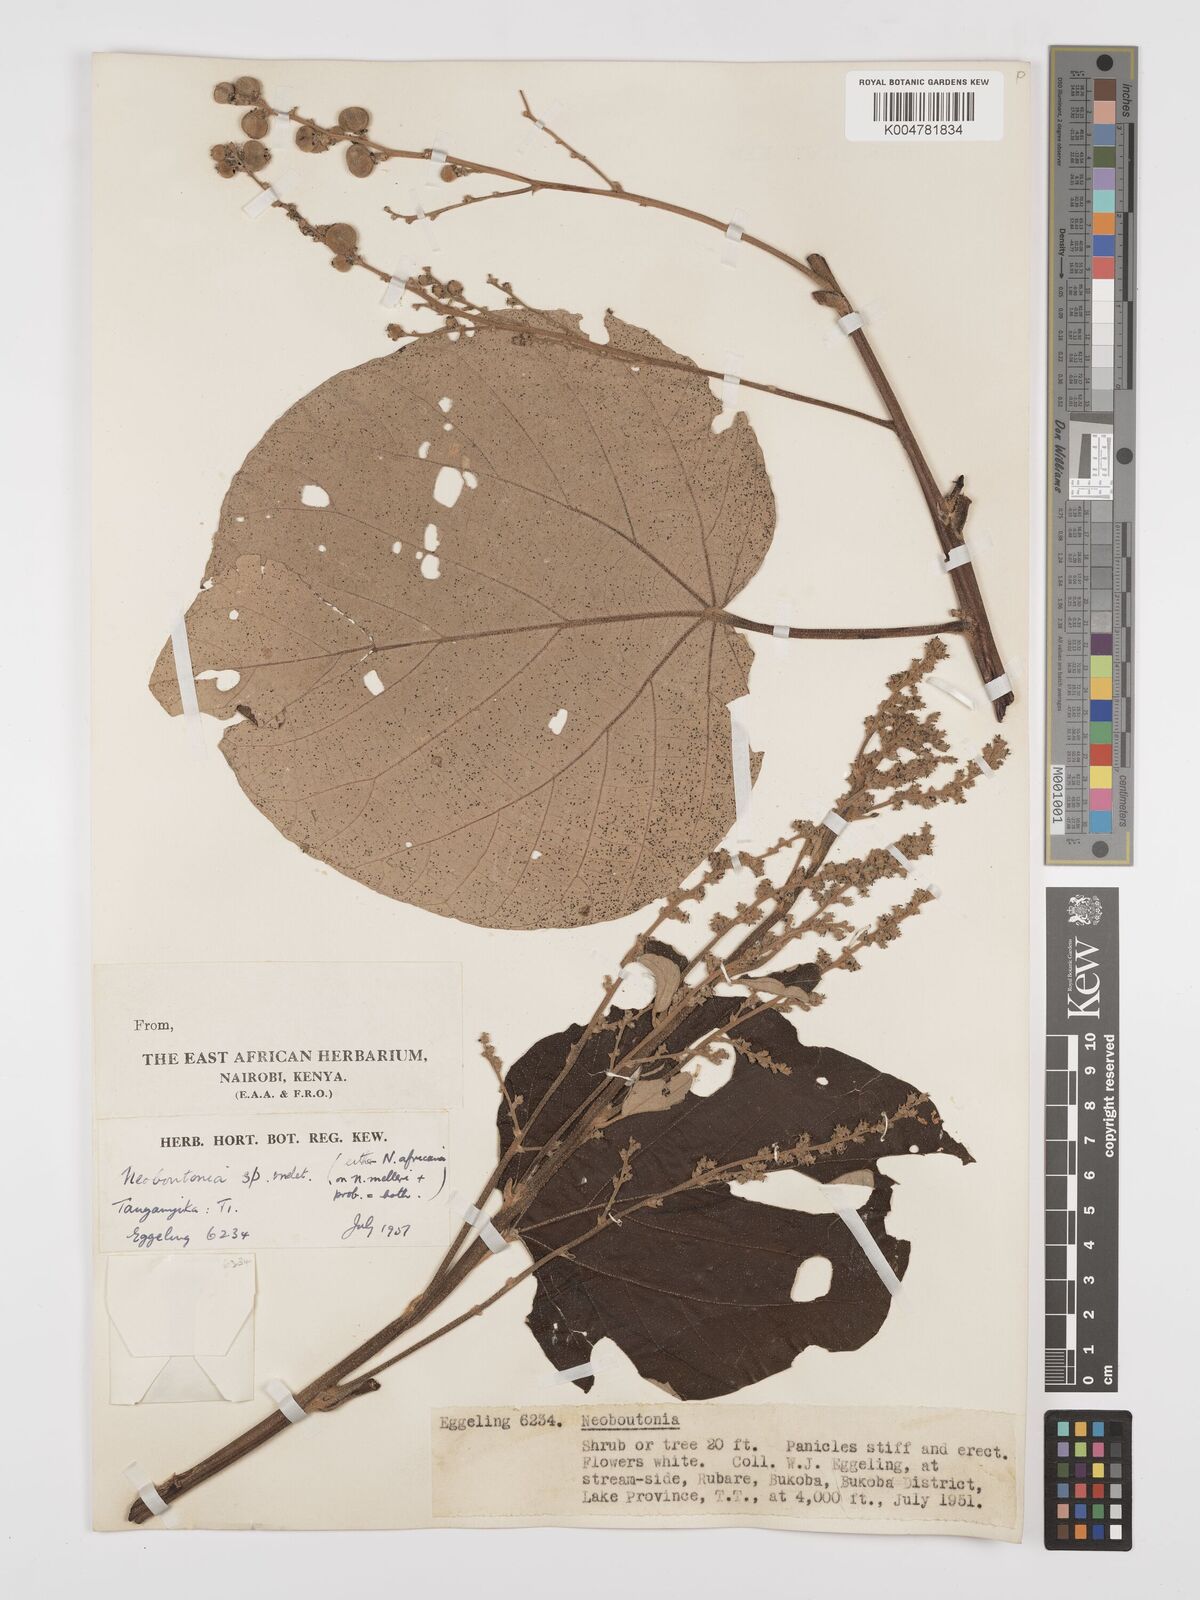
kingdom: Plantae
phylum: Tracheophyta
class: Magnoliopsida
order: Malpighiales
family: Euphorbiaceae
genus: Neoboutonia
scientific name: Neoboutonia melleri
